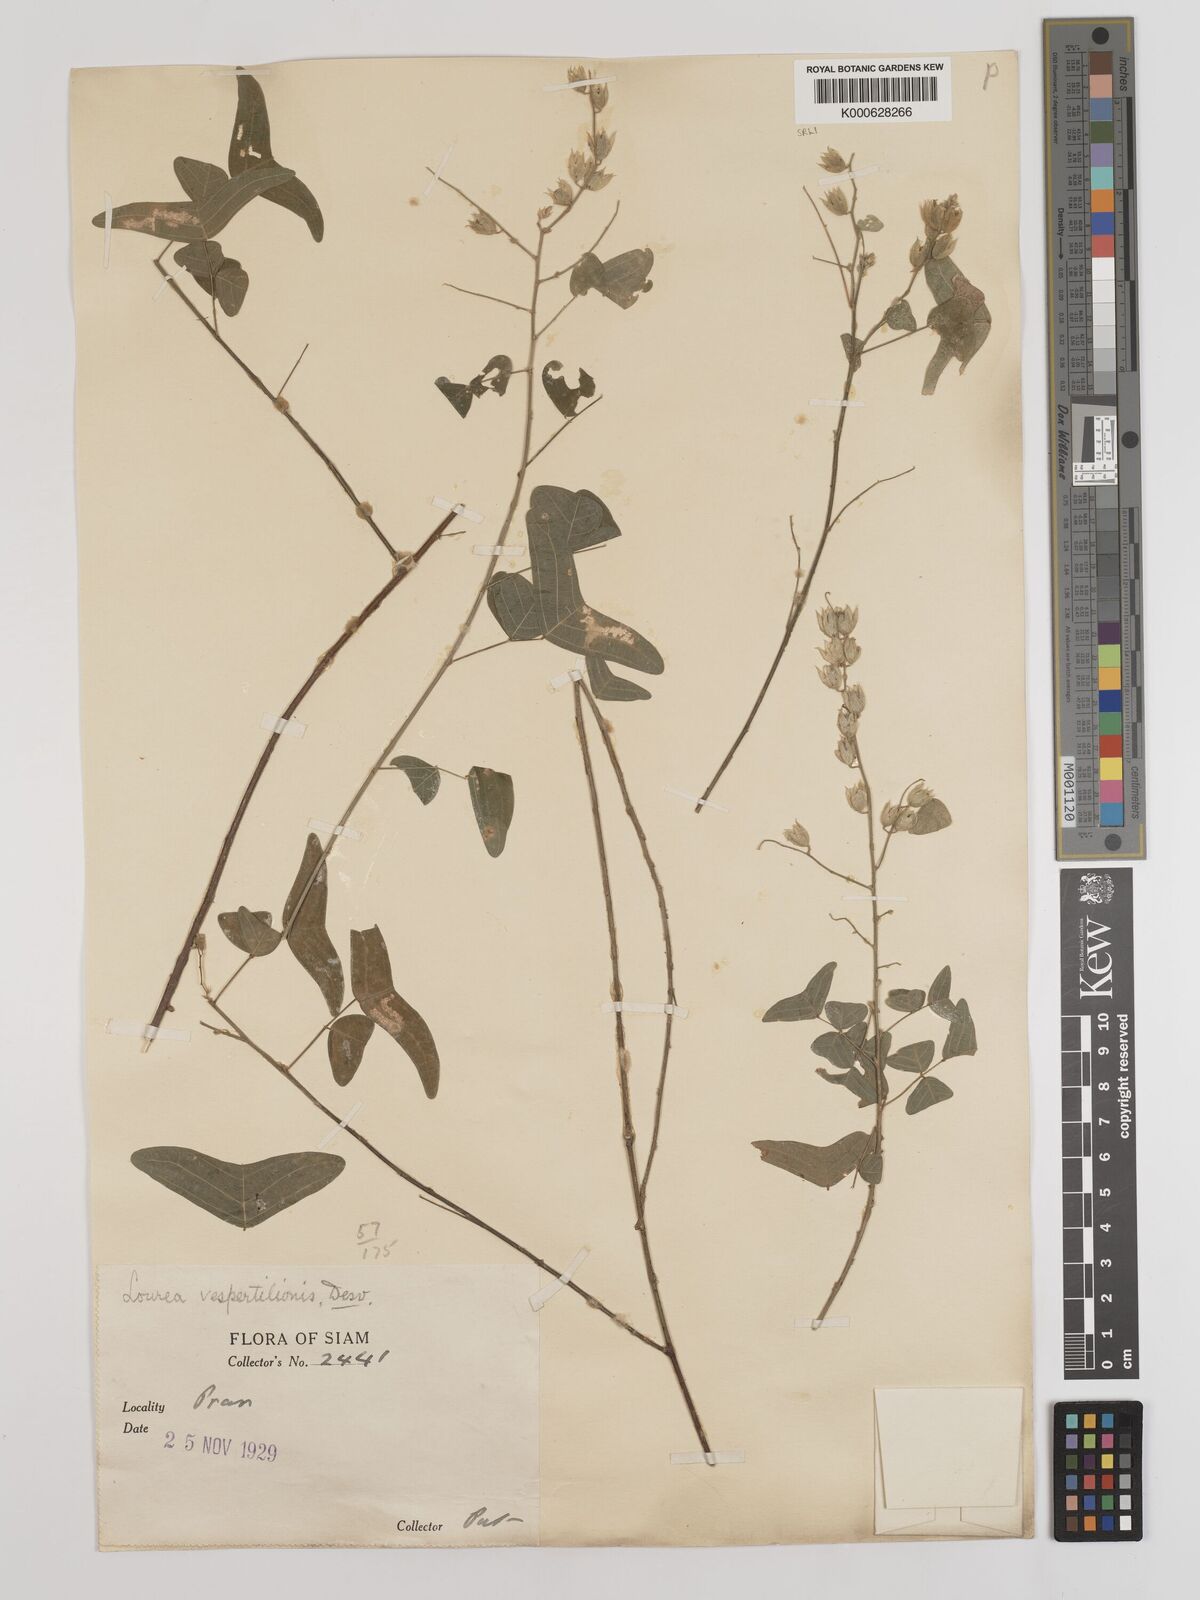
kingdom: Plantae
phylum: Tracheophyta
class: Magnoliopsida
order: Fabales
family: Fabaceae
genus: Christia
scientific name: Christia vespertilionis
